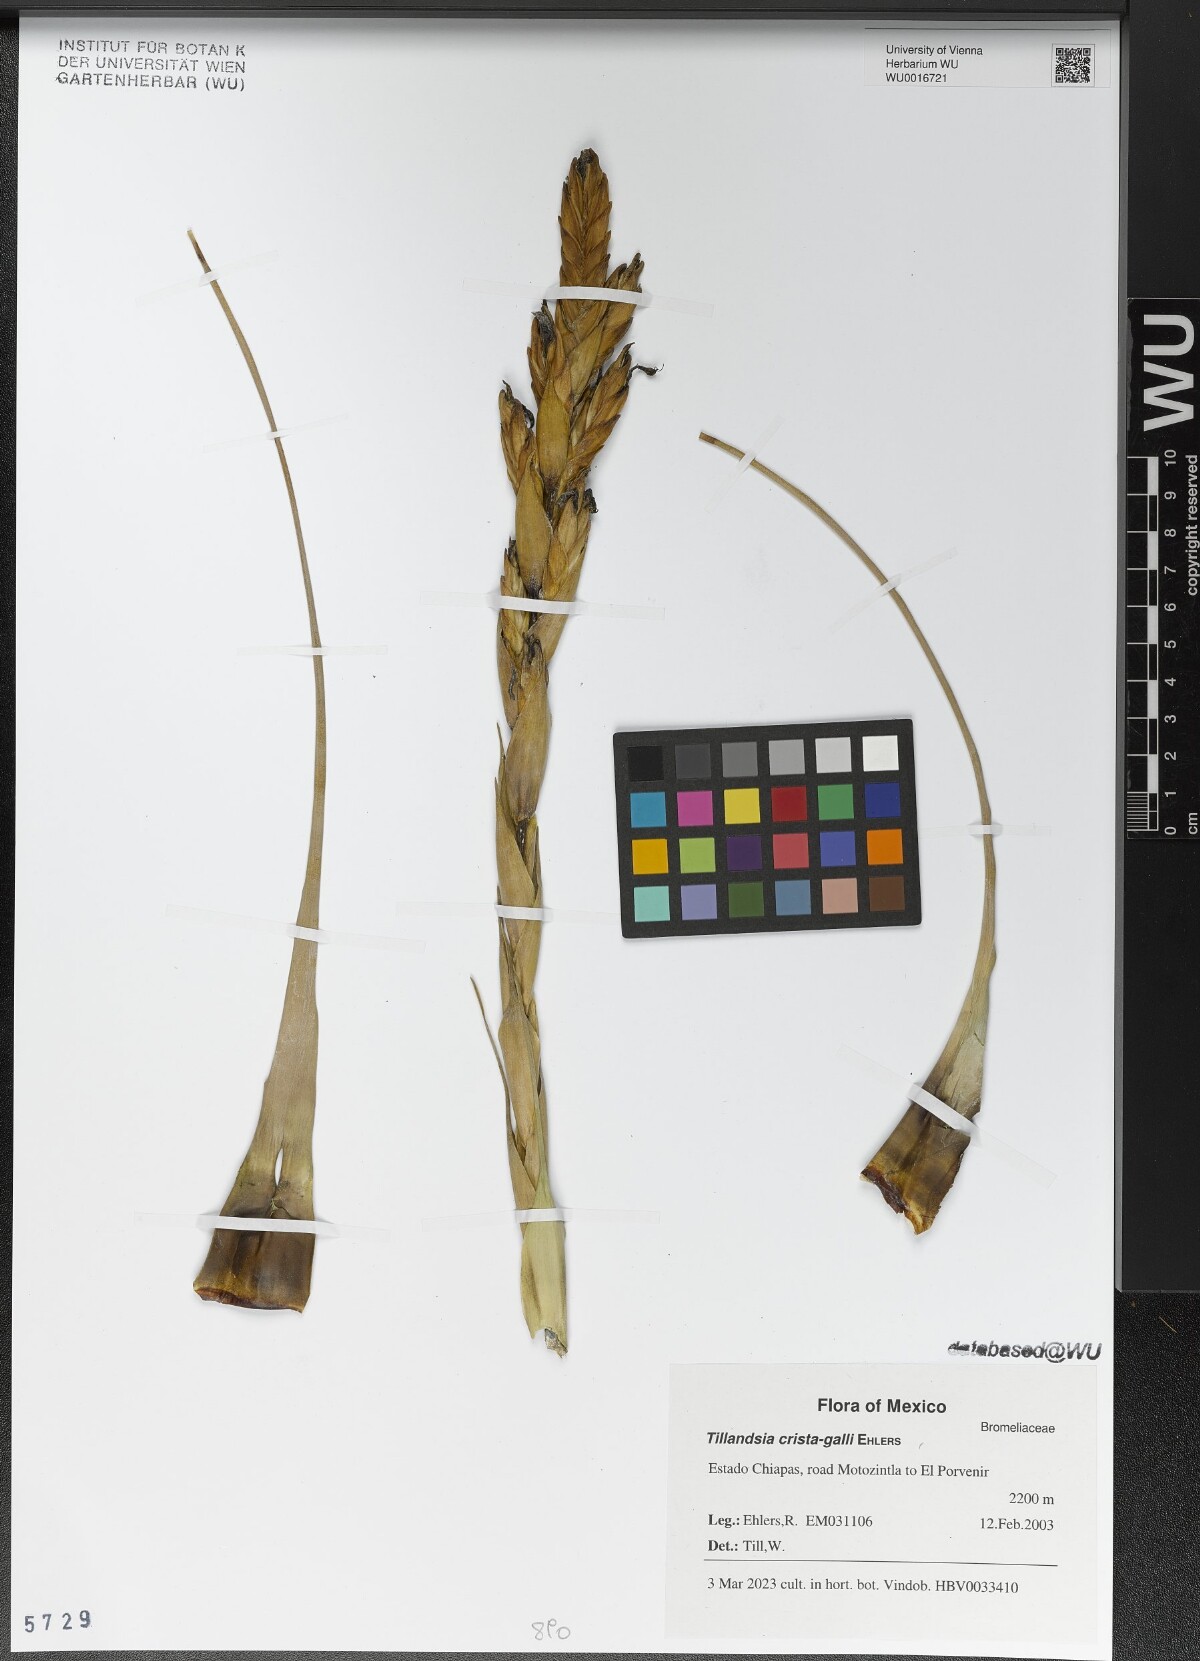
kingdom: Plantae
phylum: Tracheophyta
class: Liliopsida
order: Poales
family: Bromeliaceae
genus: Tillandsia
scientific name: Tillandsia crista-galli
